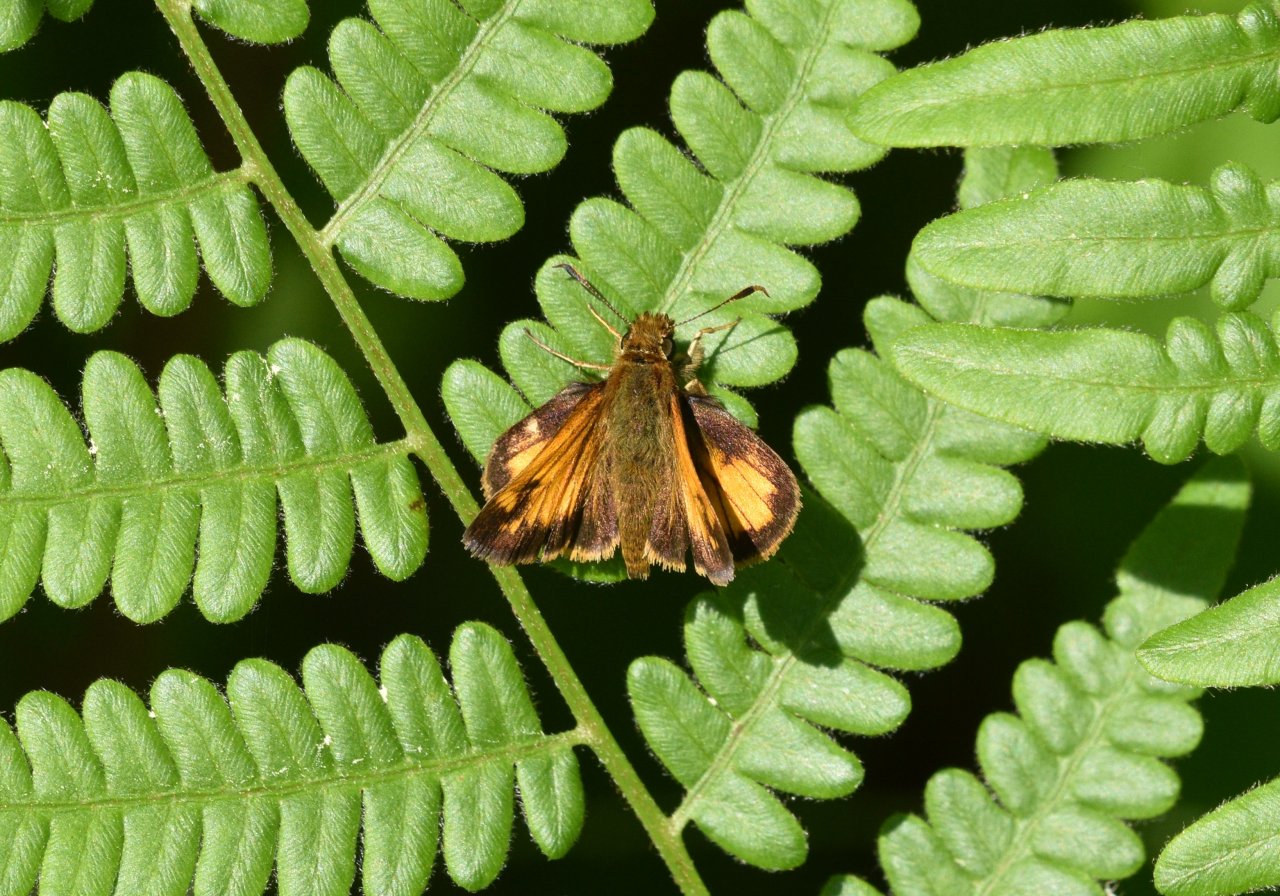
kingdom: Animalia
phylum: Arthropoda
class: Insecta
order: Lepidoptera
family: Hesperiidae
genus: Lon
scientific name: Lon hobomok
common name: Hobomok Skipper
